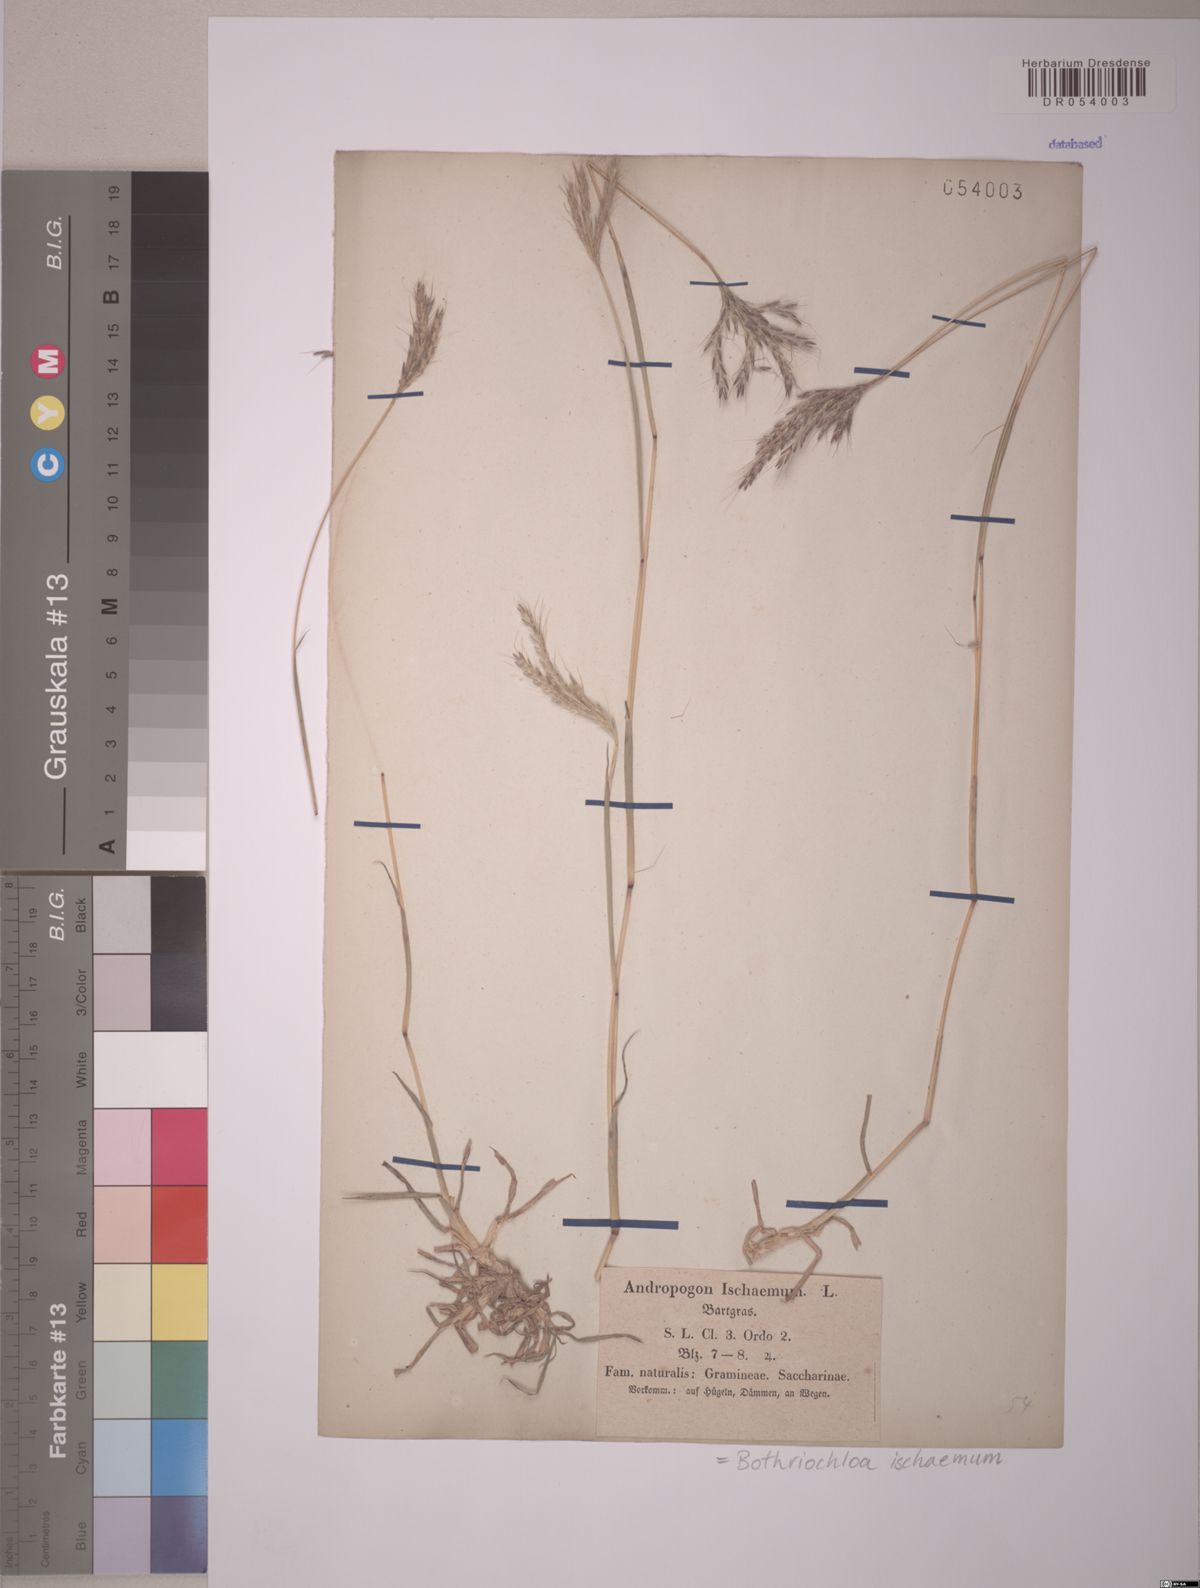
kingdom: Plantae
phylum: Tracheophyta
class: Liliopsida
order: Poales
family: Poaceae
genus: Bothriochloa
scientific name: Bothriochloa ischaemum
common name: Yellow bluestem
